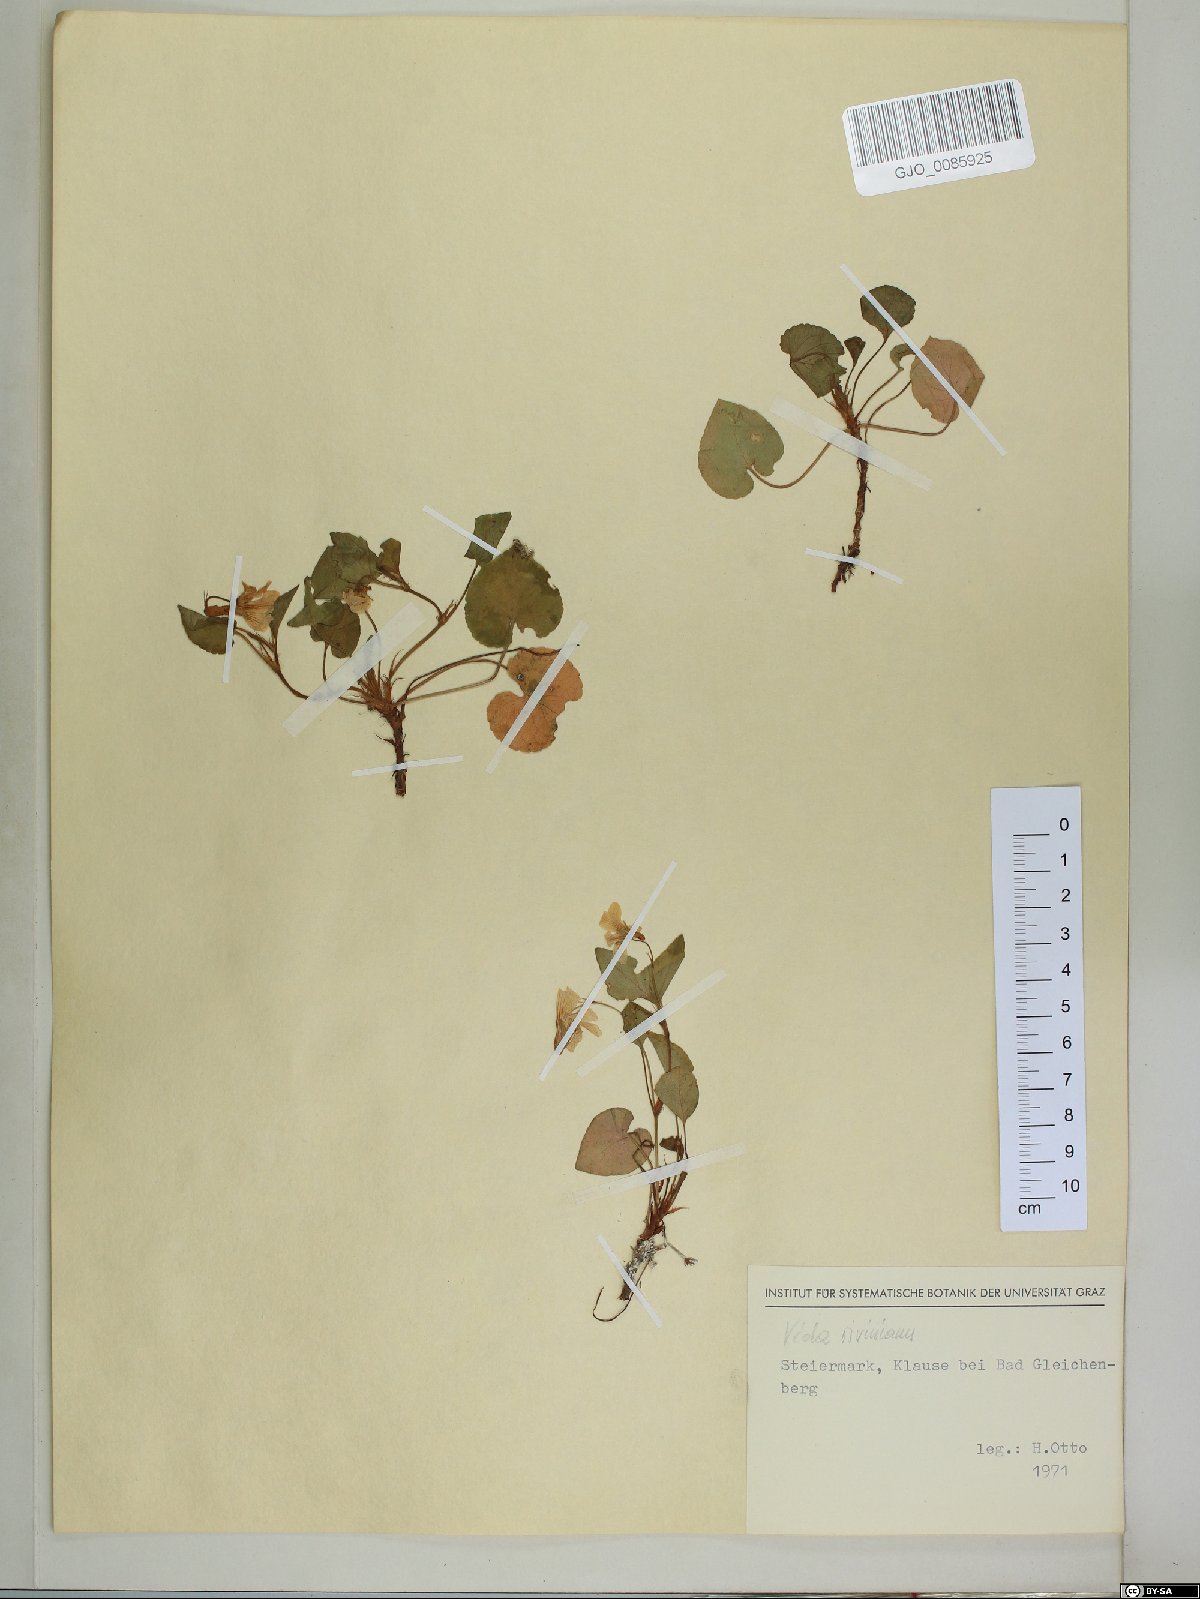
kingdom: Plantae
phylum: Tracheophyta
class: Magnoliopsida
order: Malpighiales
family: Violaceae
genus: Viola
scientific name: Viola riviniana
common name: Common dog-violet
